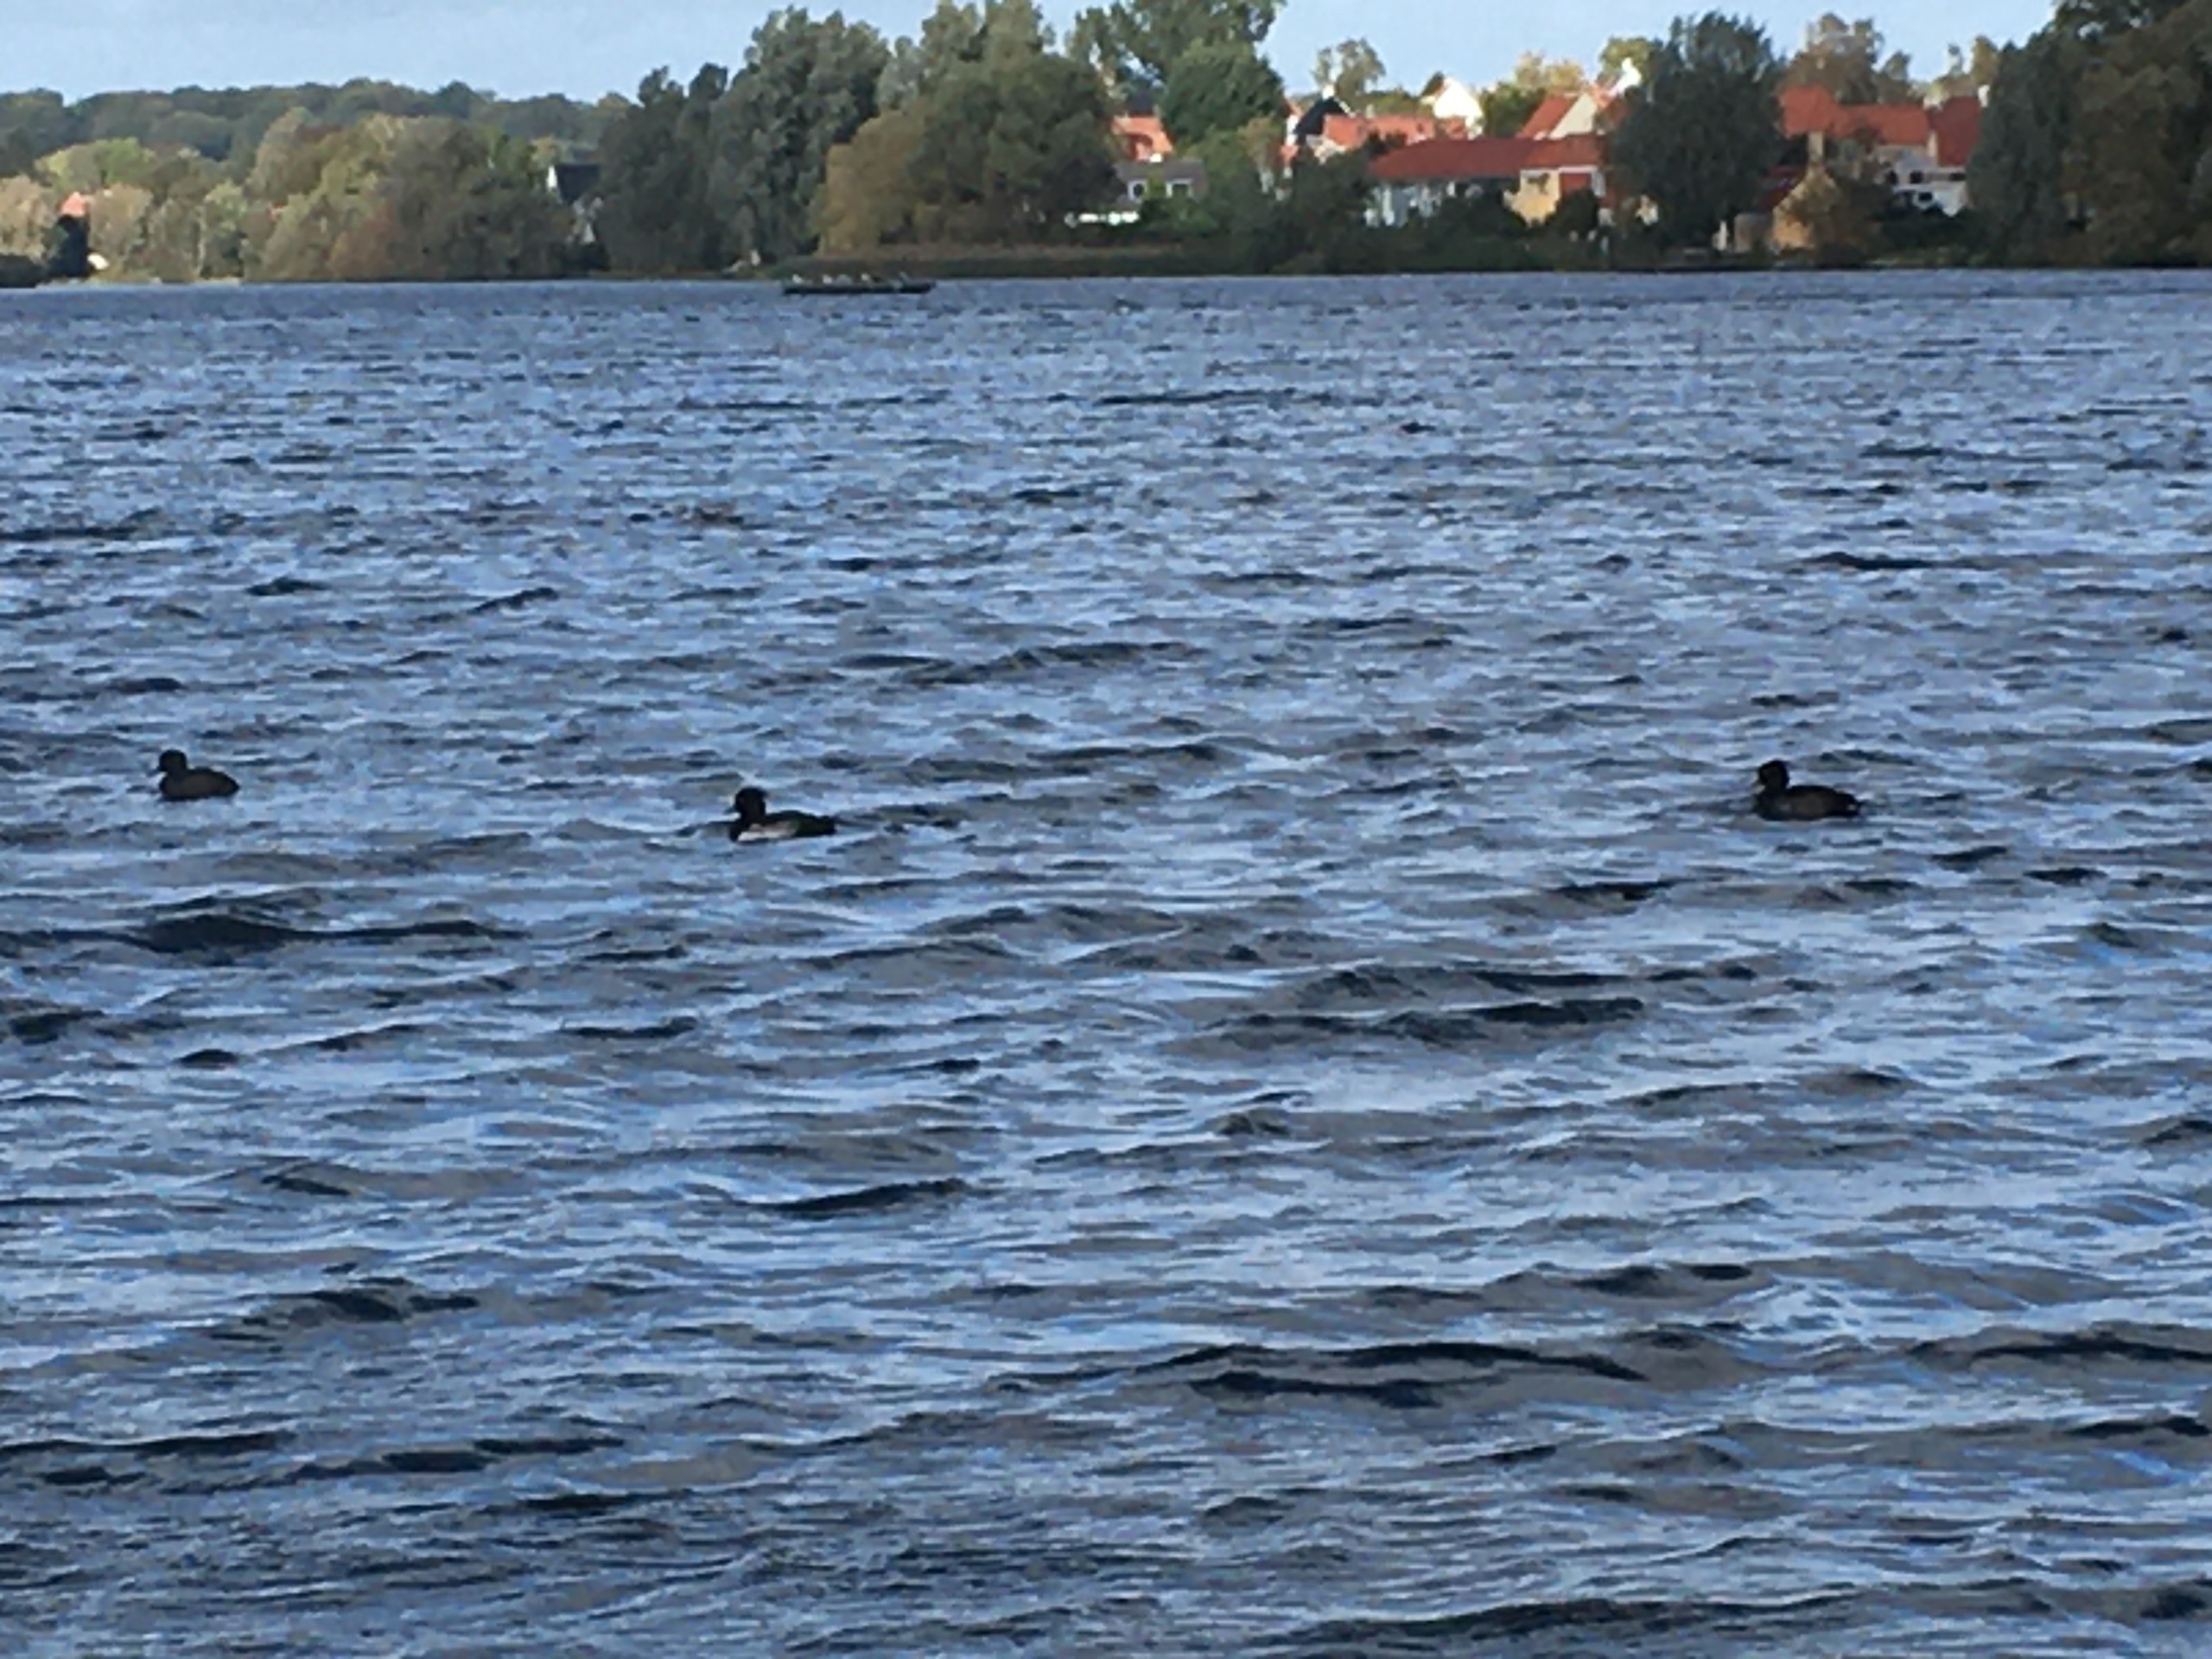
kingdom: Animalia
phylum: Chordata
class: Aves
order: Anseriformes
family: Anatidae
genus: Aythya
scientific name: Aythya fuligula
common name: Troldand
